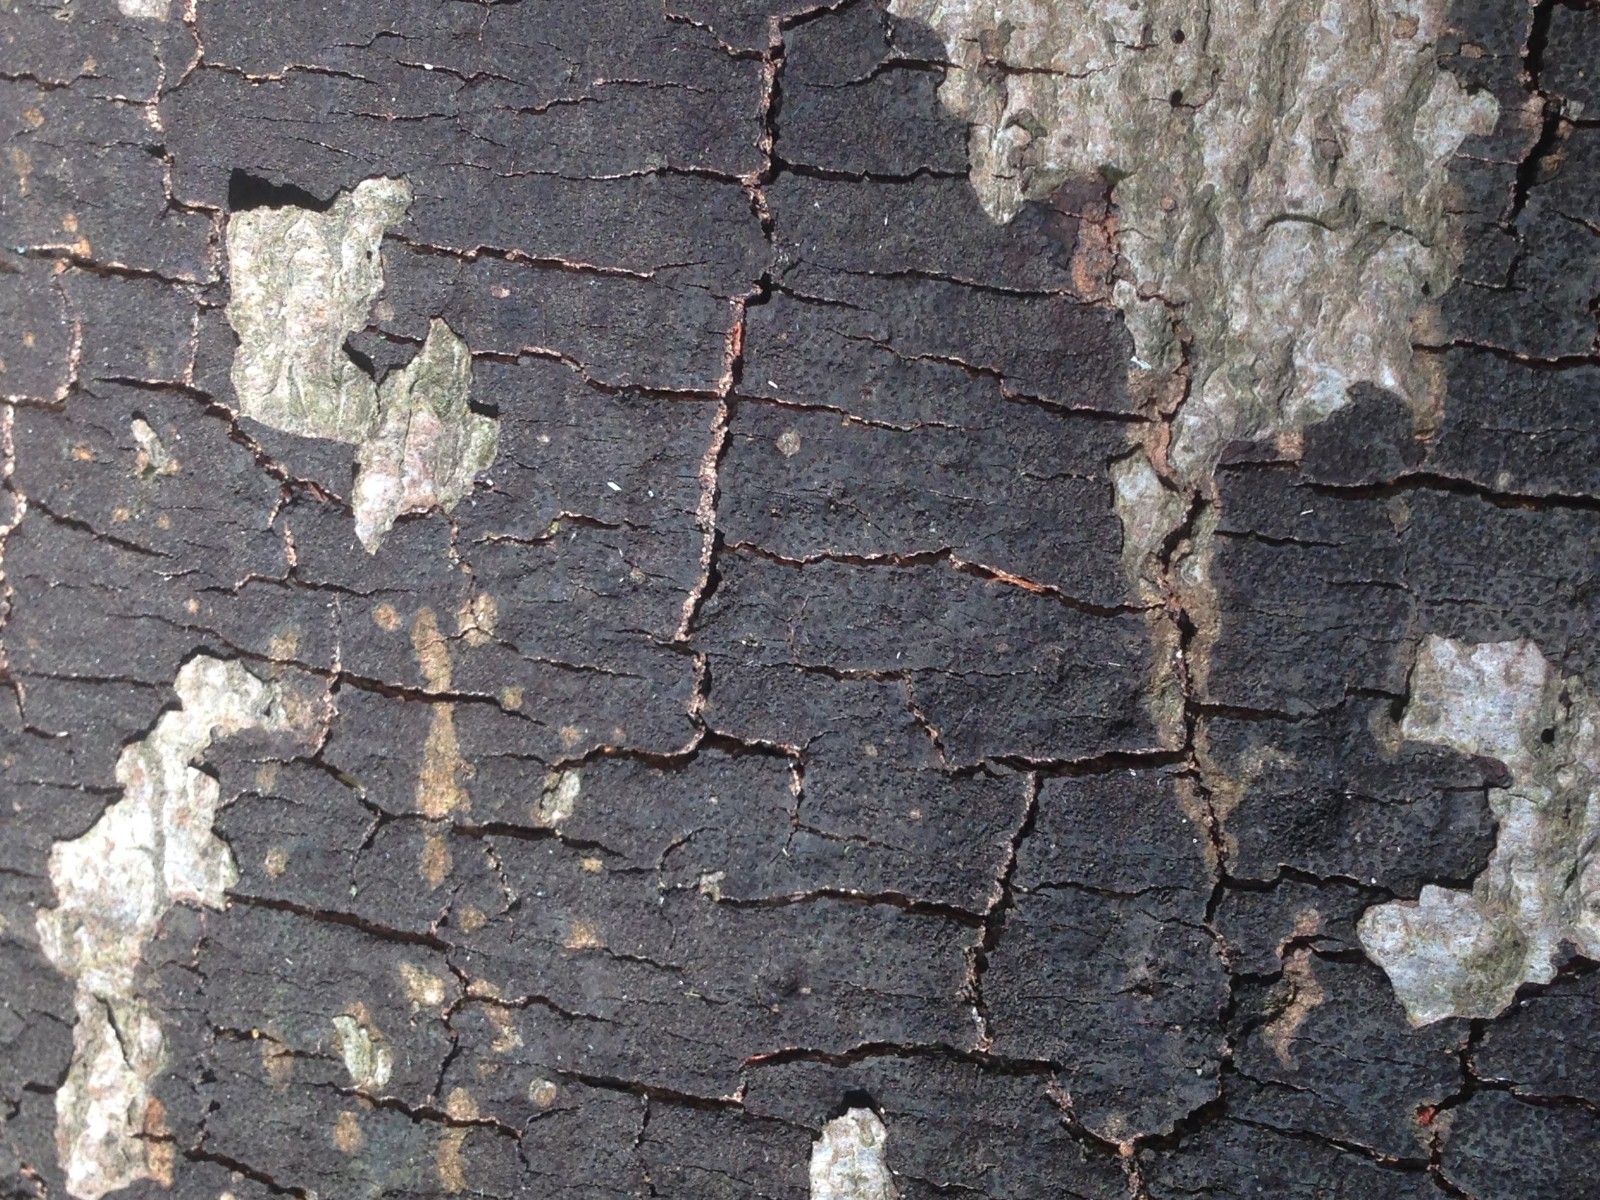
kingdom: Fungi
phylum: Ascomycota
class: Sordariomycetes
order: Xylariales
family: Diatrypaceae
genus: Eutypa
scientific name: Eutypa spinosa
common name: grov kulskorpe
